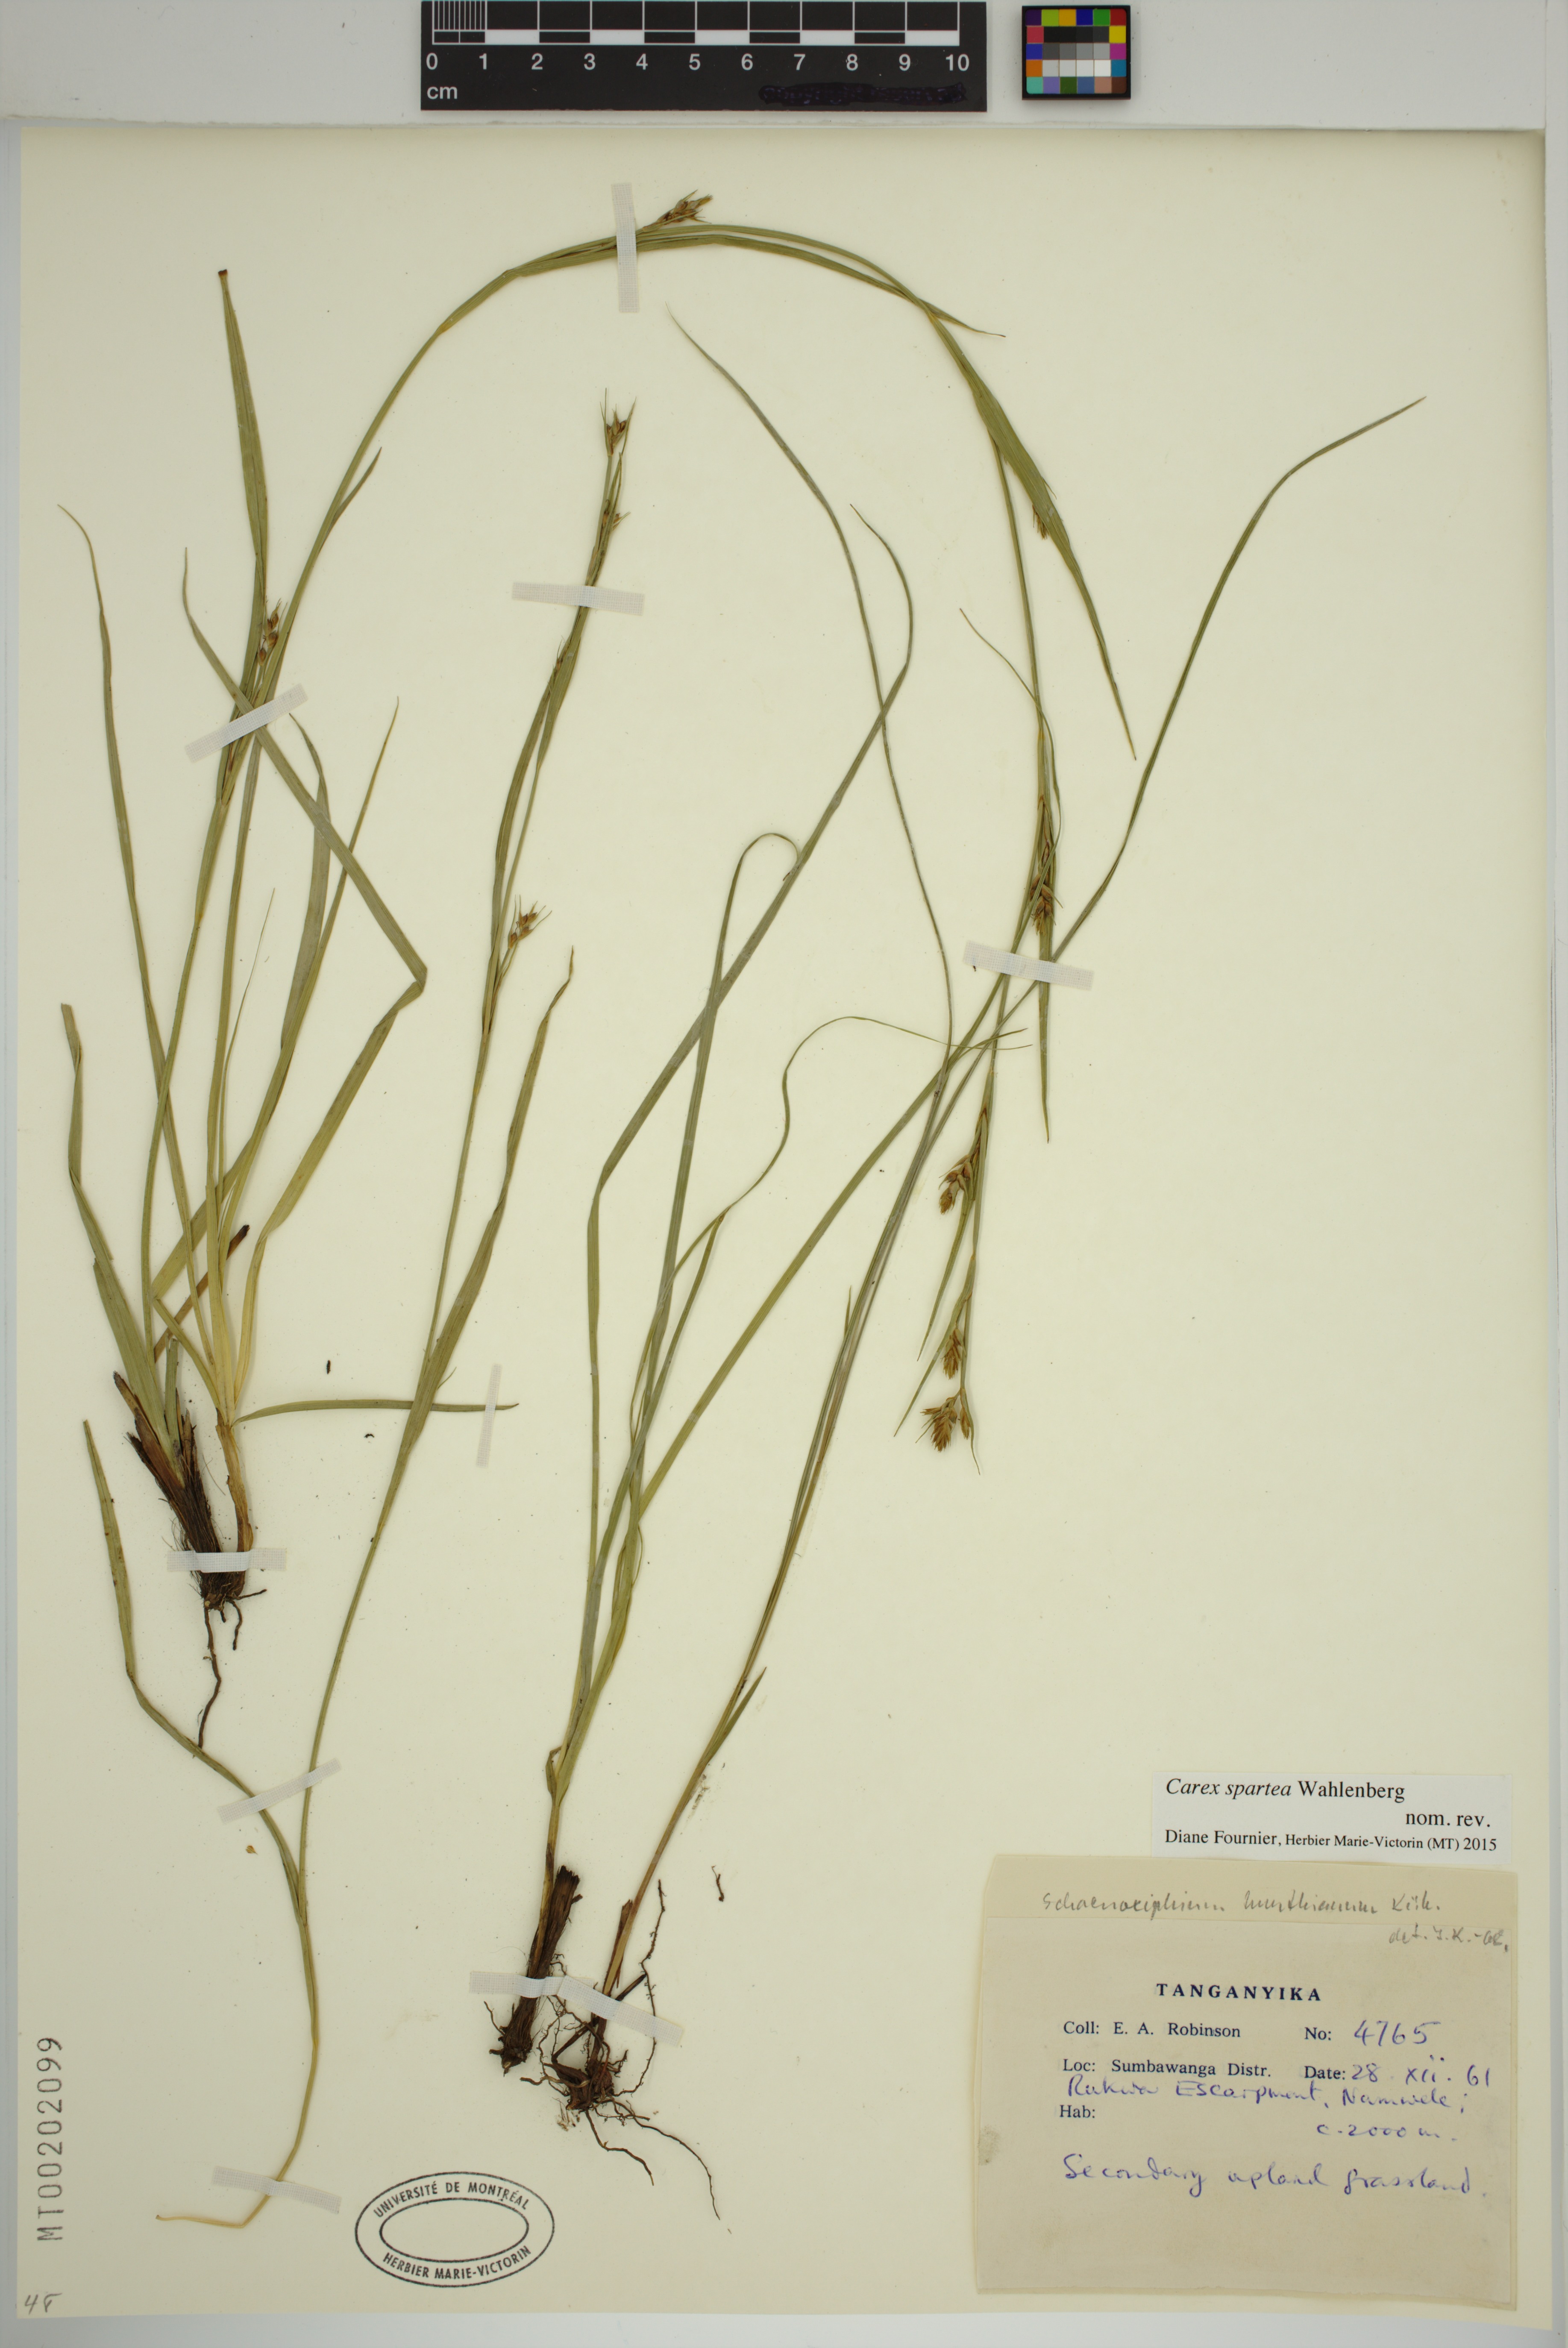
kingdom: Plantae
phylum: Tracheophyta
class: Liliopsida
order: Poales
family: Cyperaceae
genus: Carex
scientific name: Carex spartea
